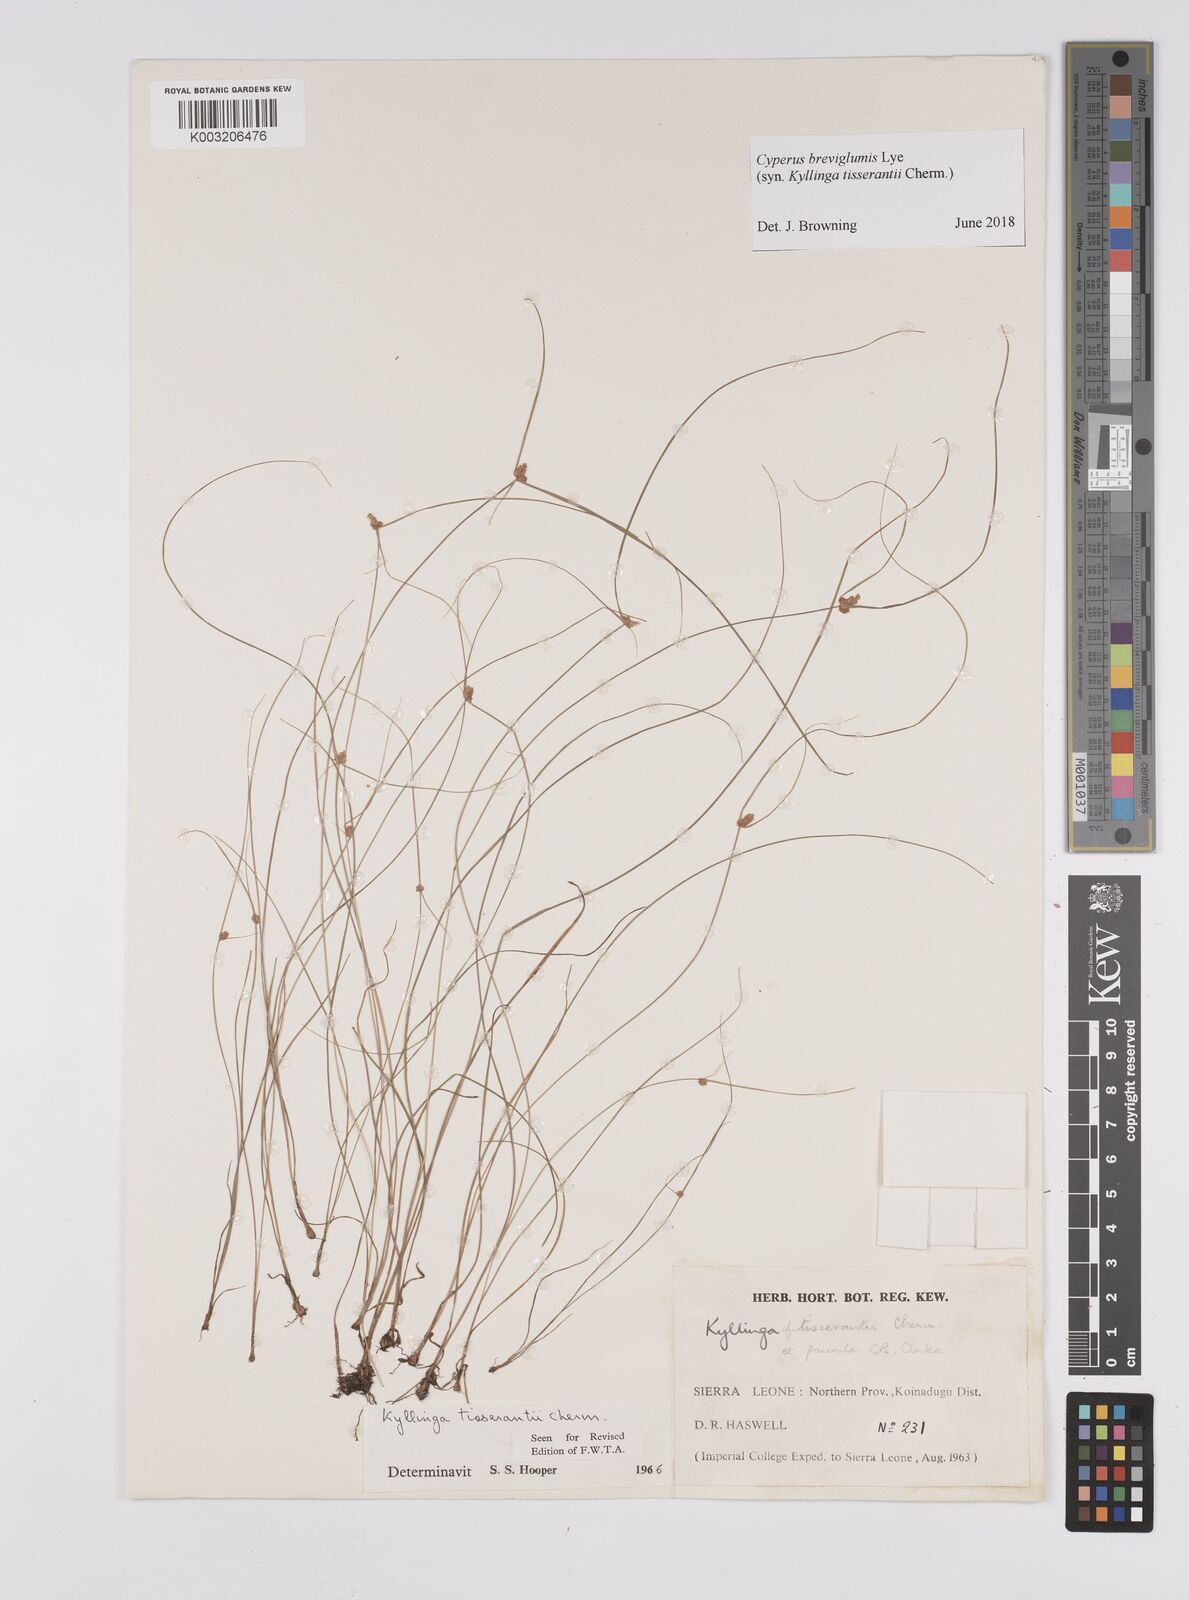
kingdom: Plantae
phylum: Tracheophyta
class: Liliopsida
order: Poales
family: Cyperaceae
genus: Cyperus
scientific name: Cyperus
